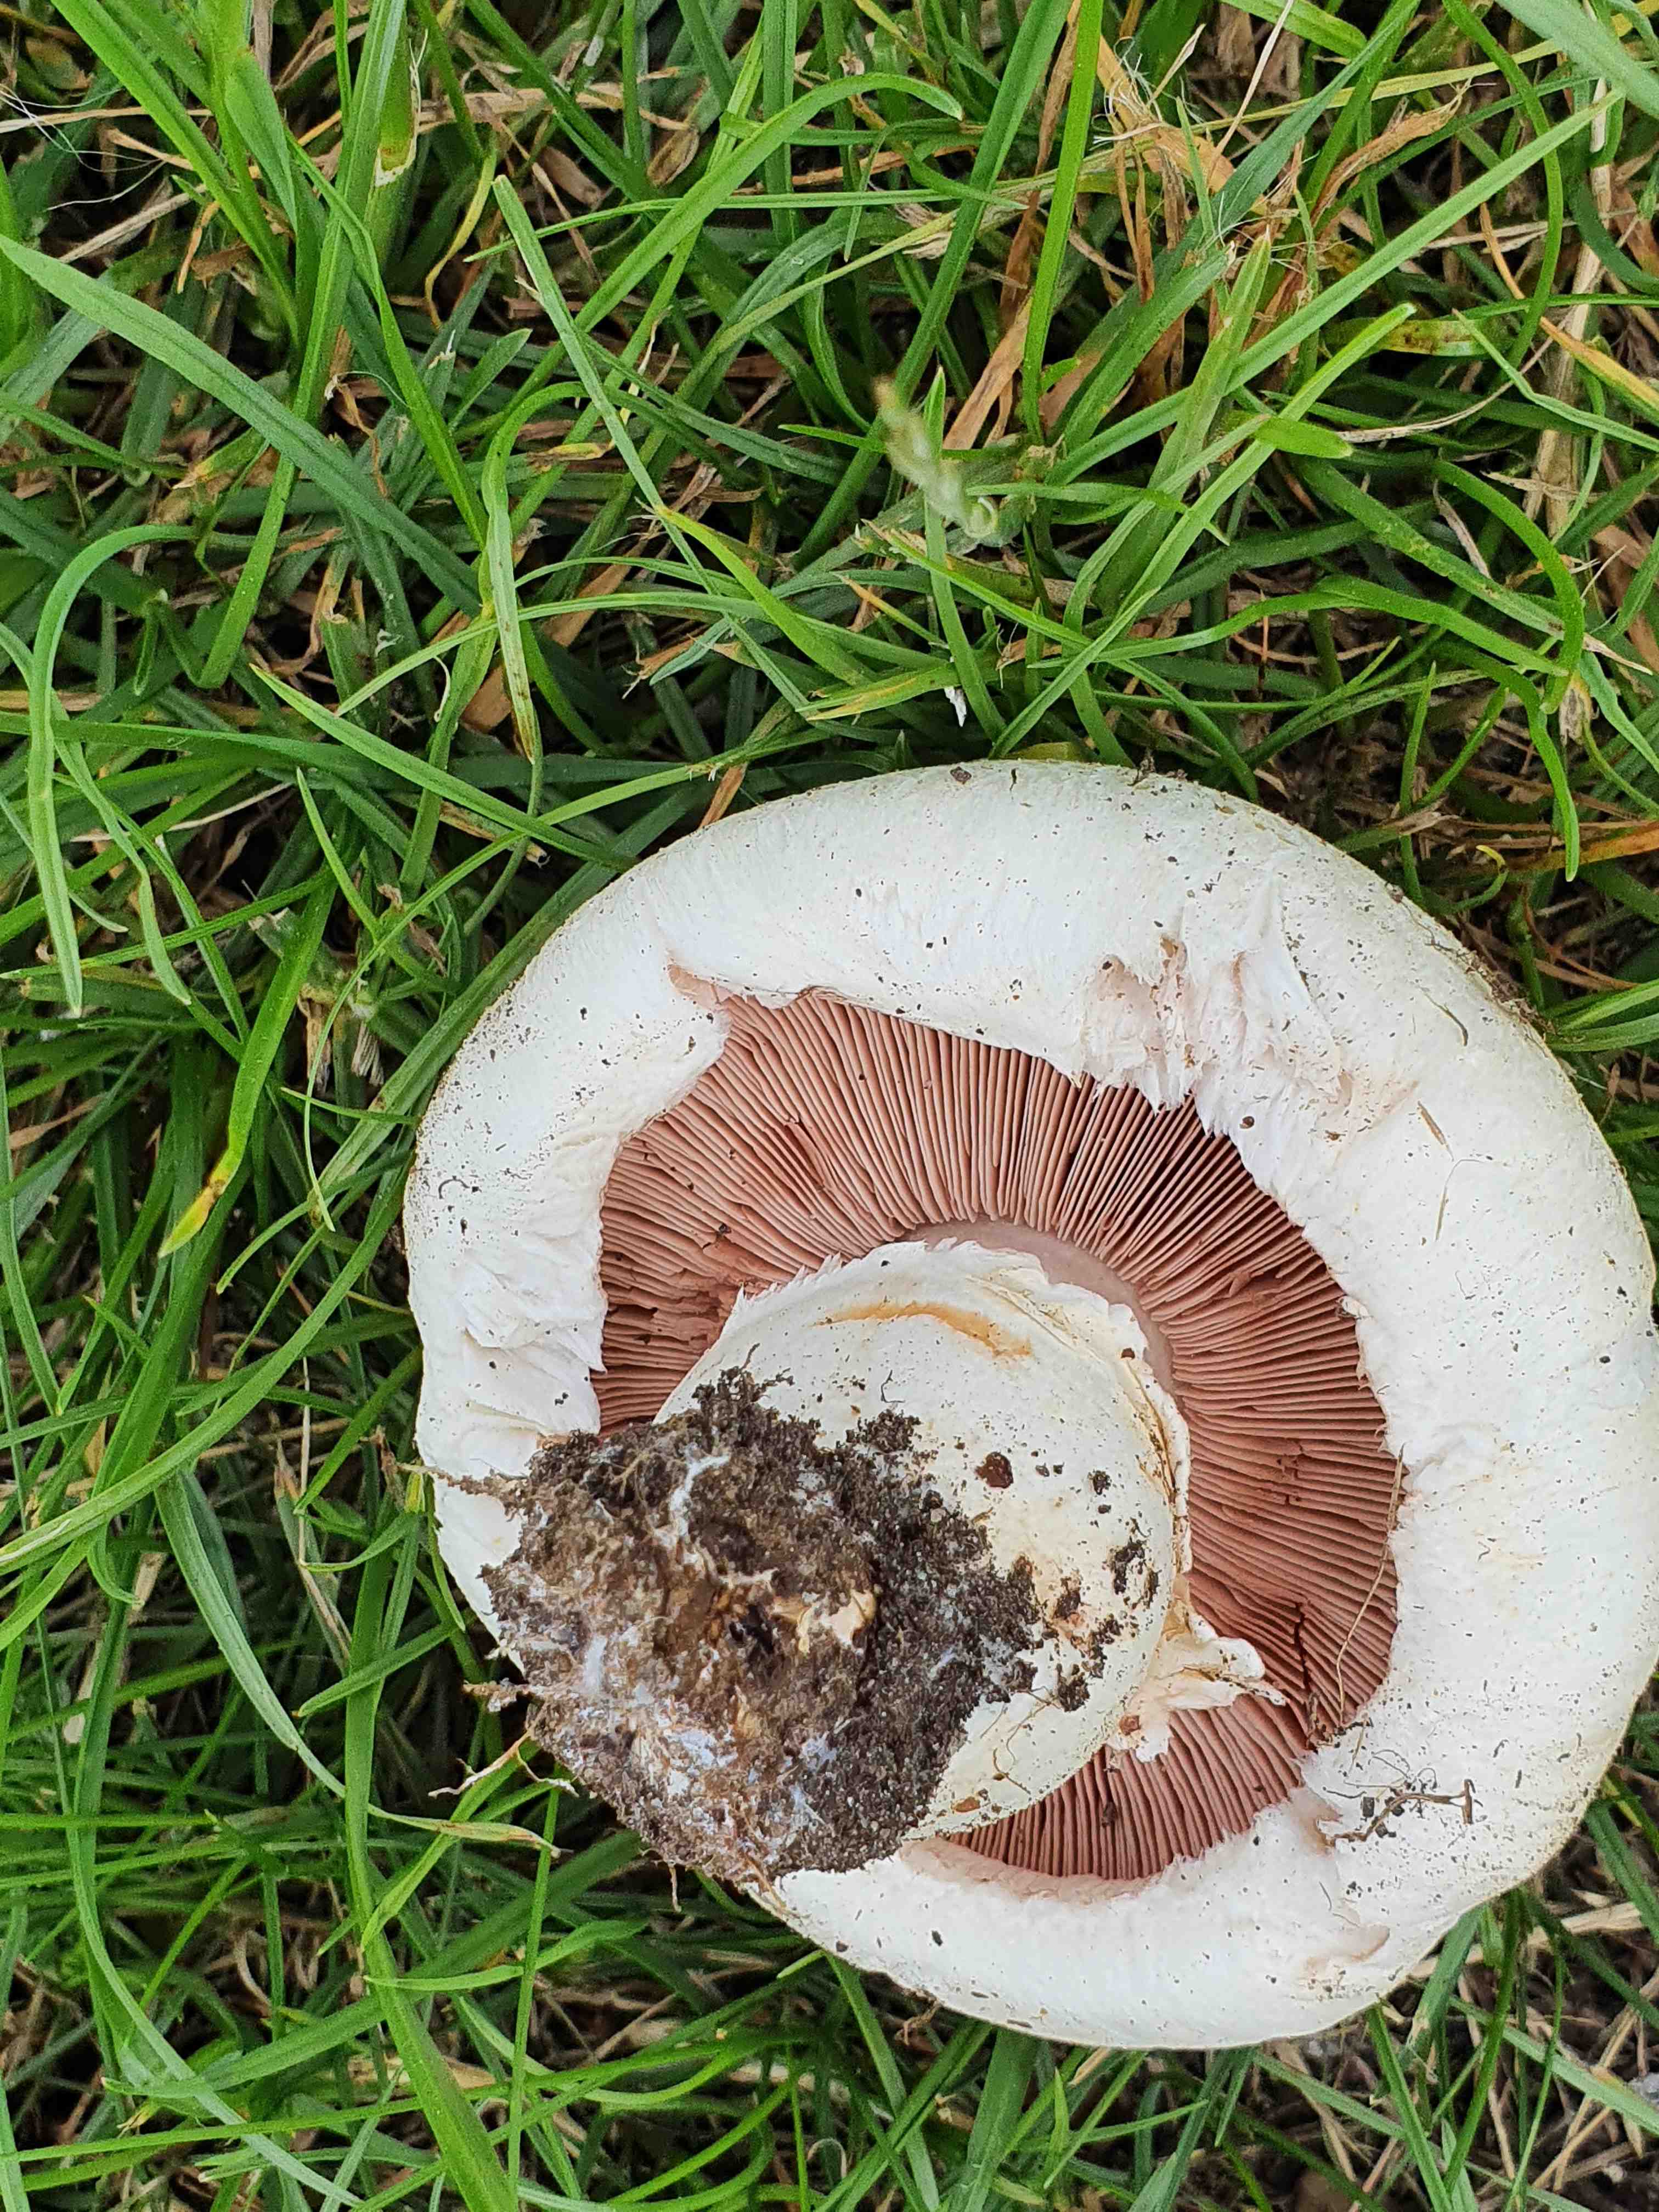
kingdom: Fungi
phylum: Basidiomycota
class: Agaricomycetes
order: Agaricales
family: Agaricaceae
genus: Agaricus
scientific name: Agaricus bernardii
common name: strandengs-champignon
